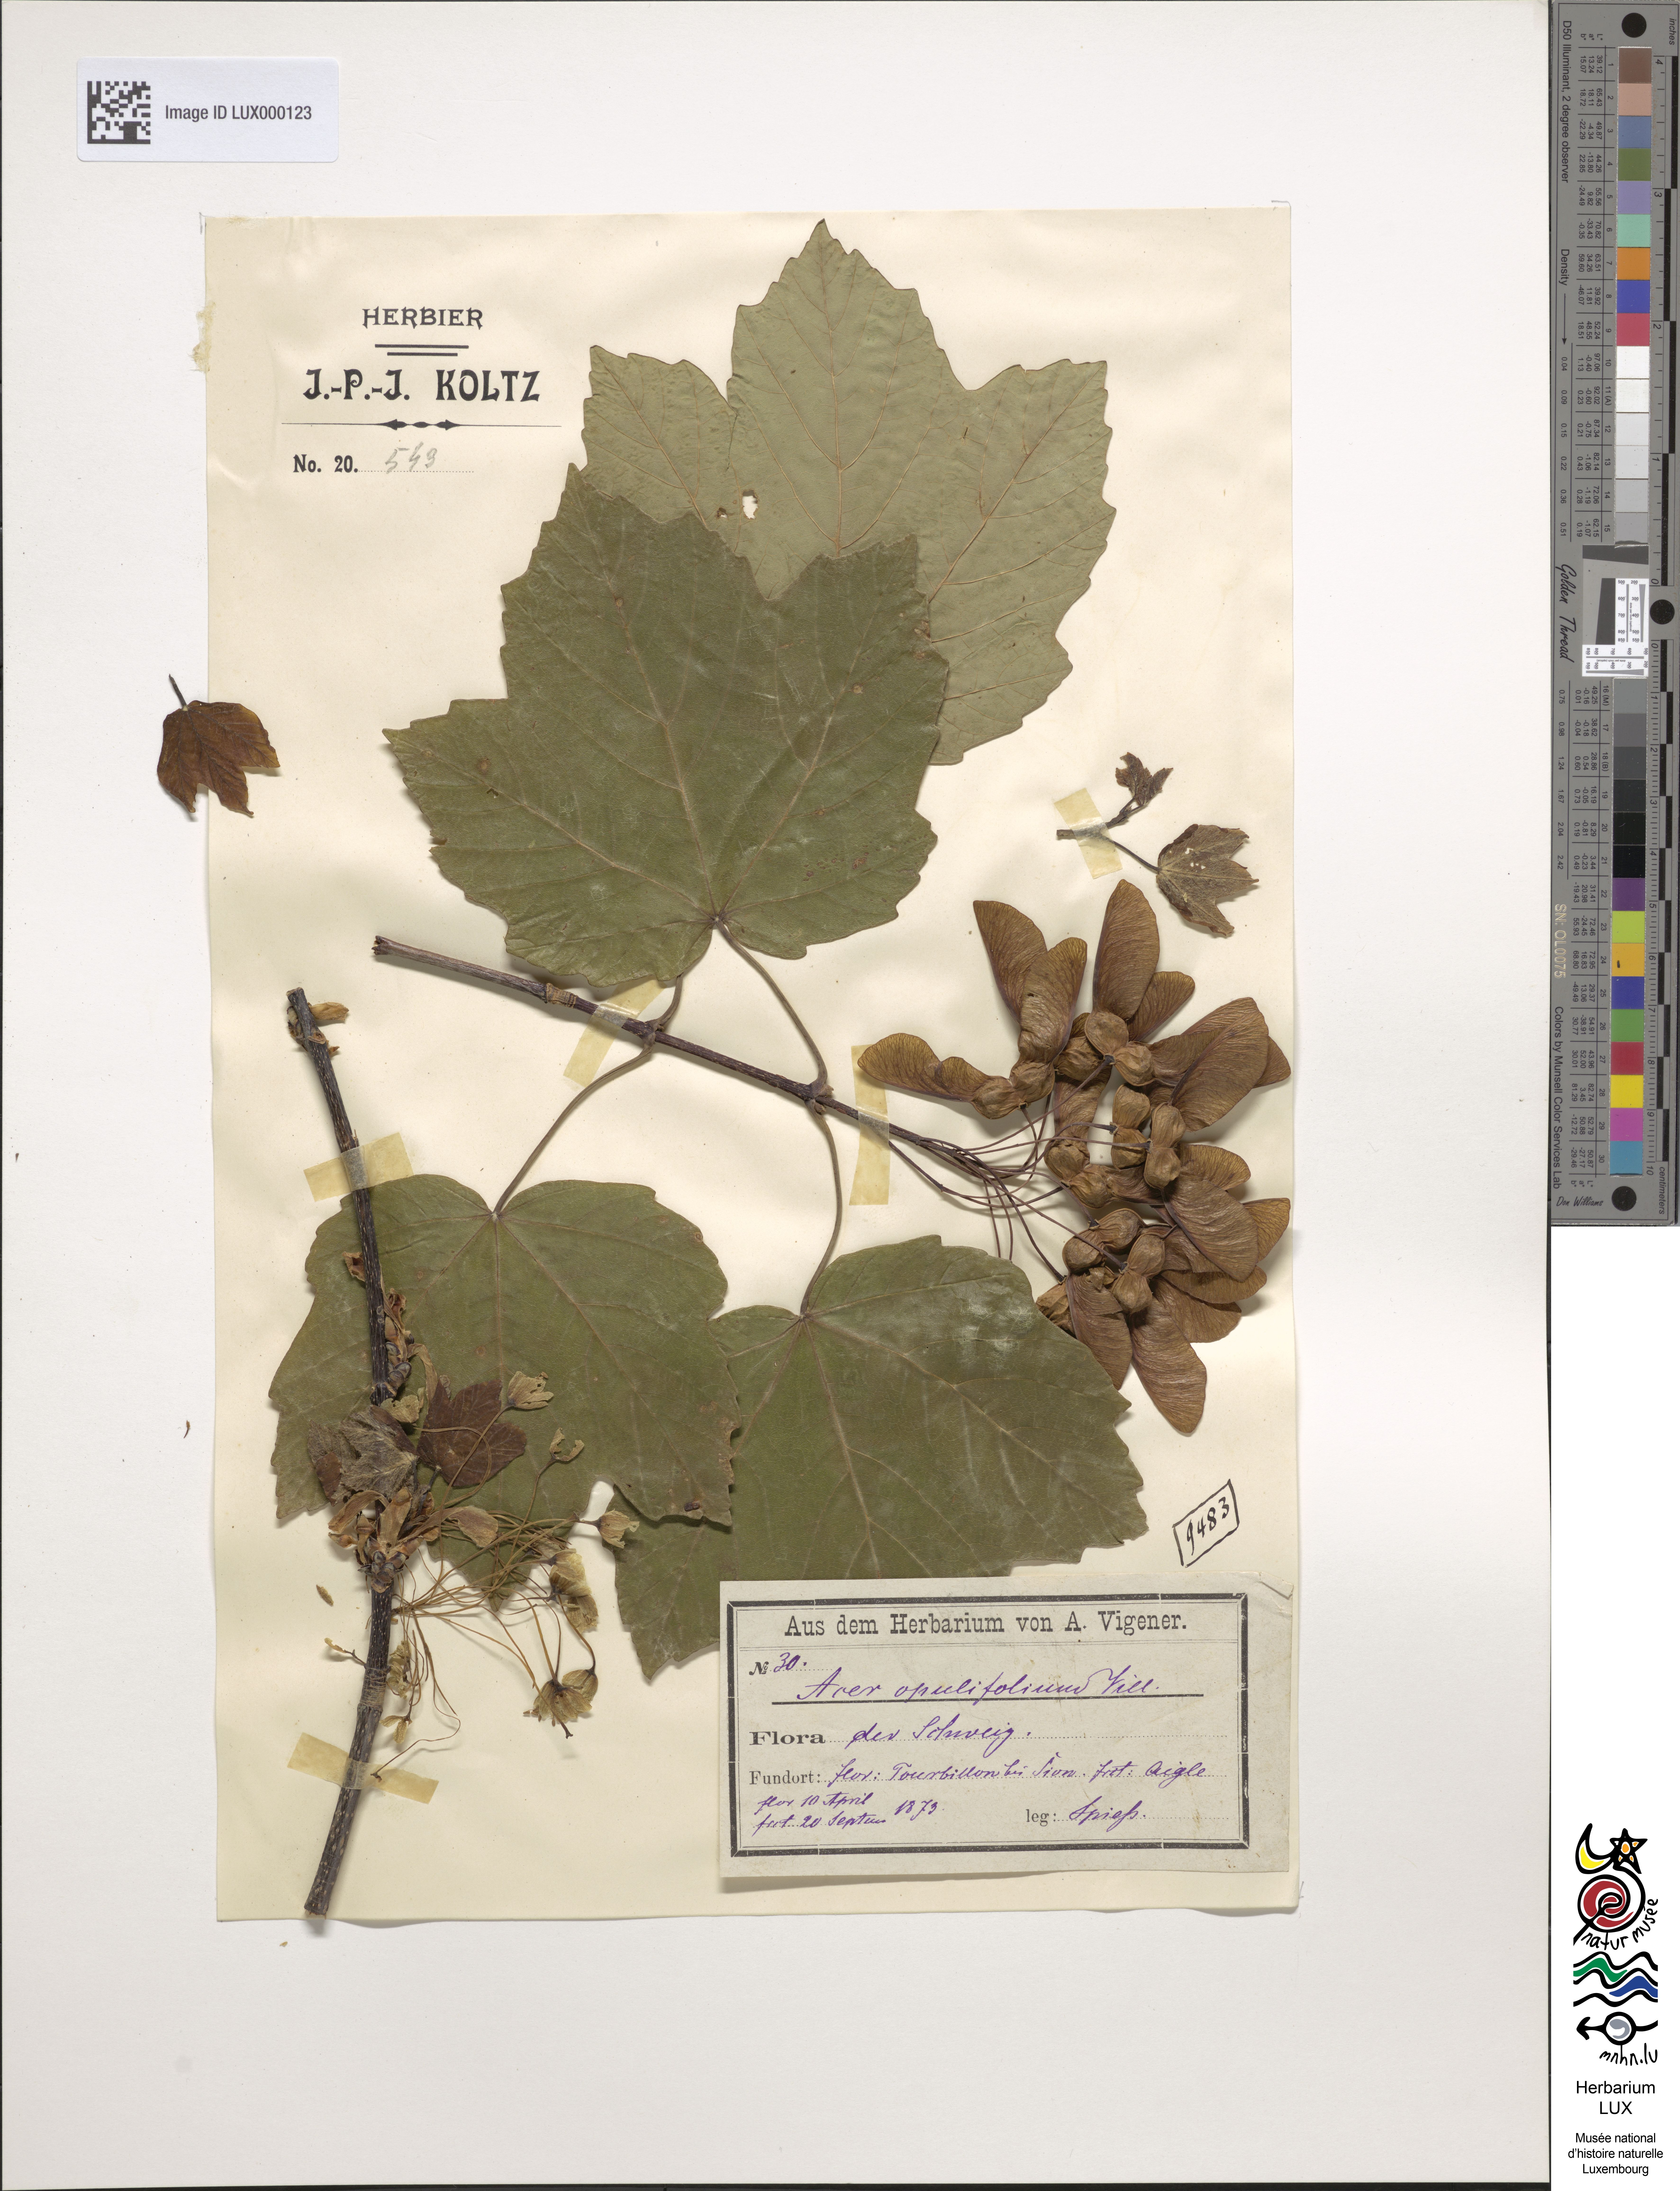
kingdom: Plantae
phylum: Tracheophyta
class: Magnoliopsida
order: Sapindales
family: Sapindaceae
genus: Acer
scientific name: Acer opalus
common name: Italian maple
